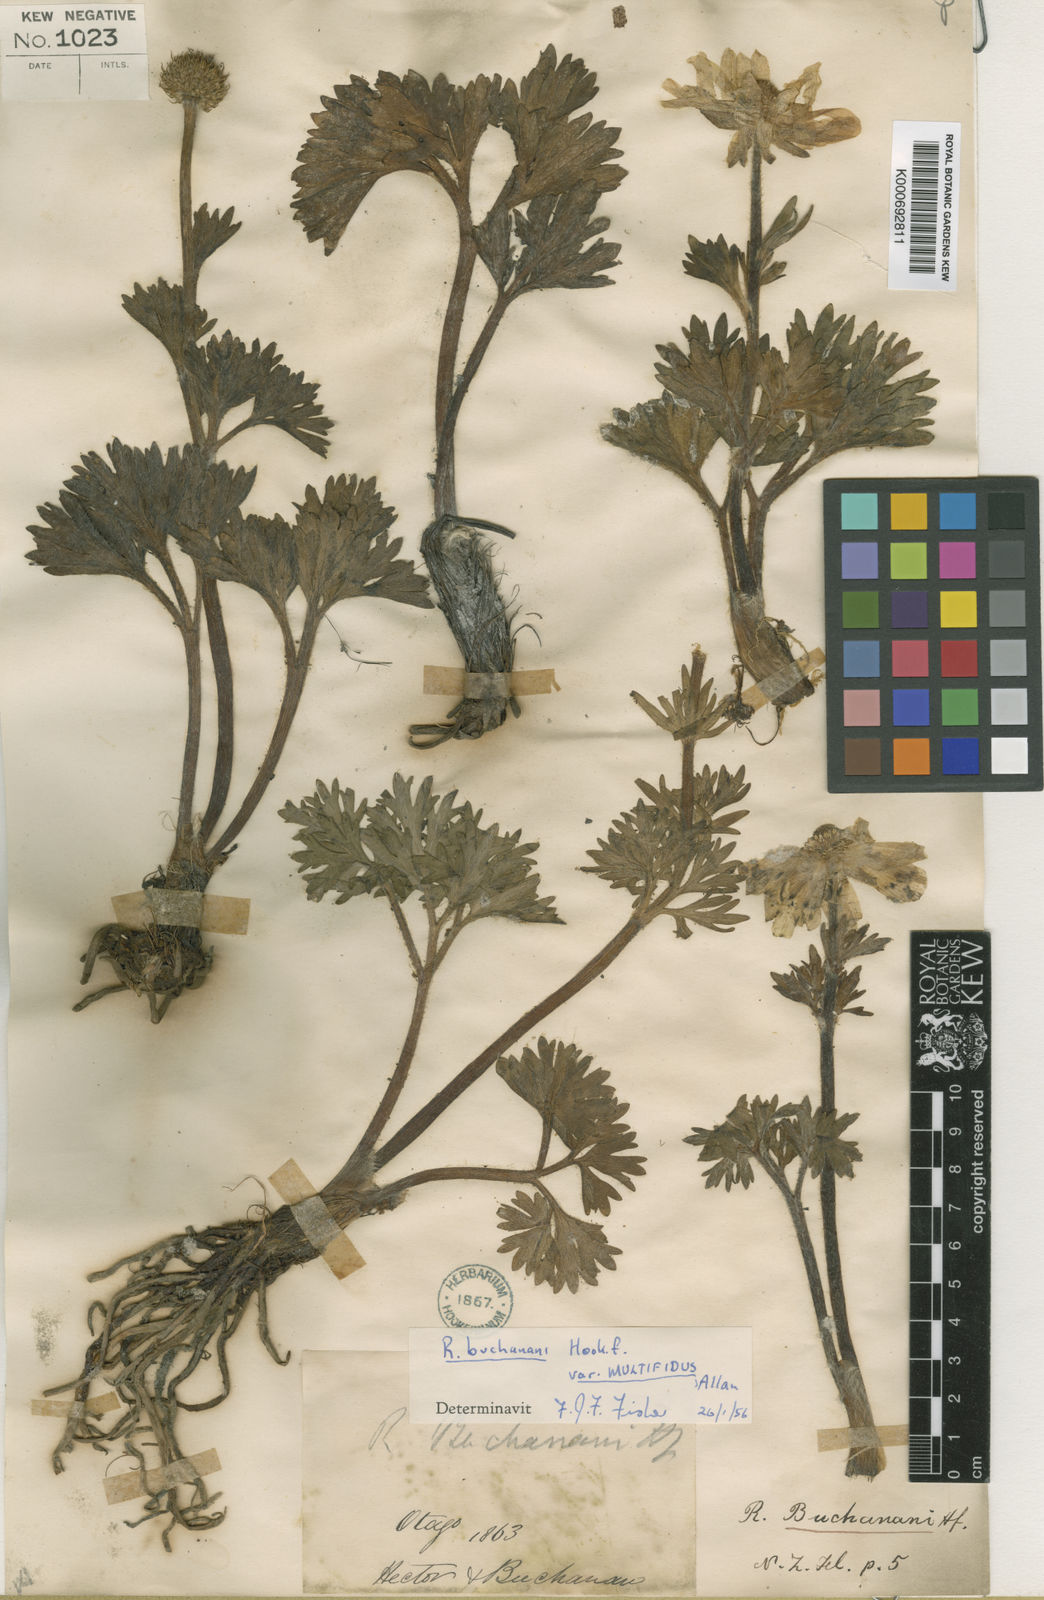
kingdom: Plantae
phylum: Tracheophyta
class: Magnoliopsida
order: Ranunculales
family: Ranunculaceae
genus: Ranunculus
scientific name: Ranunculus buchananii
